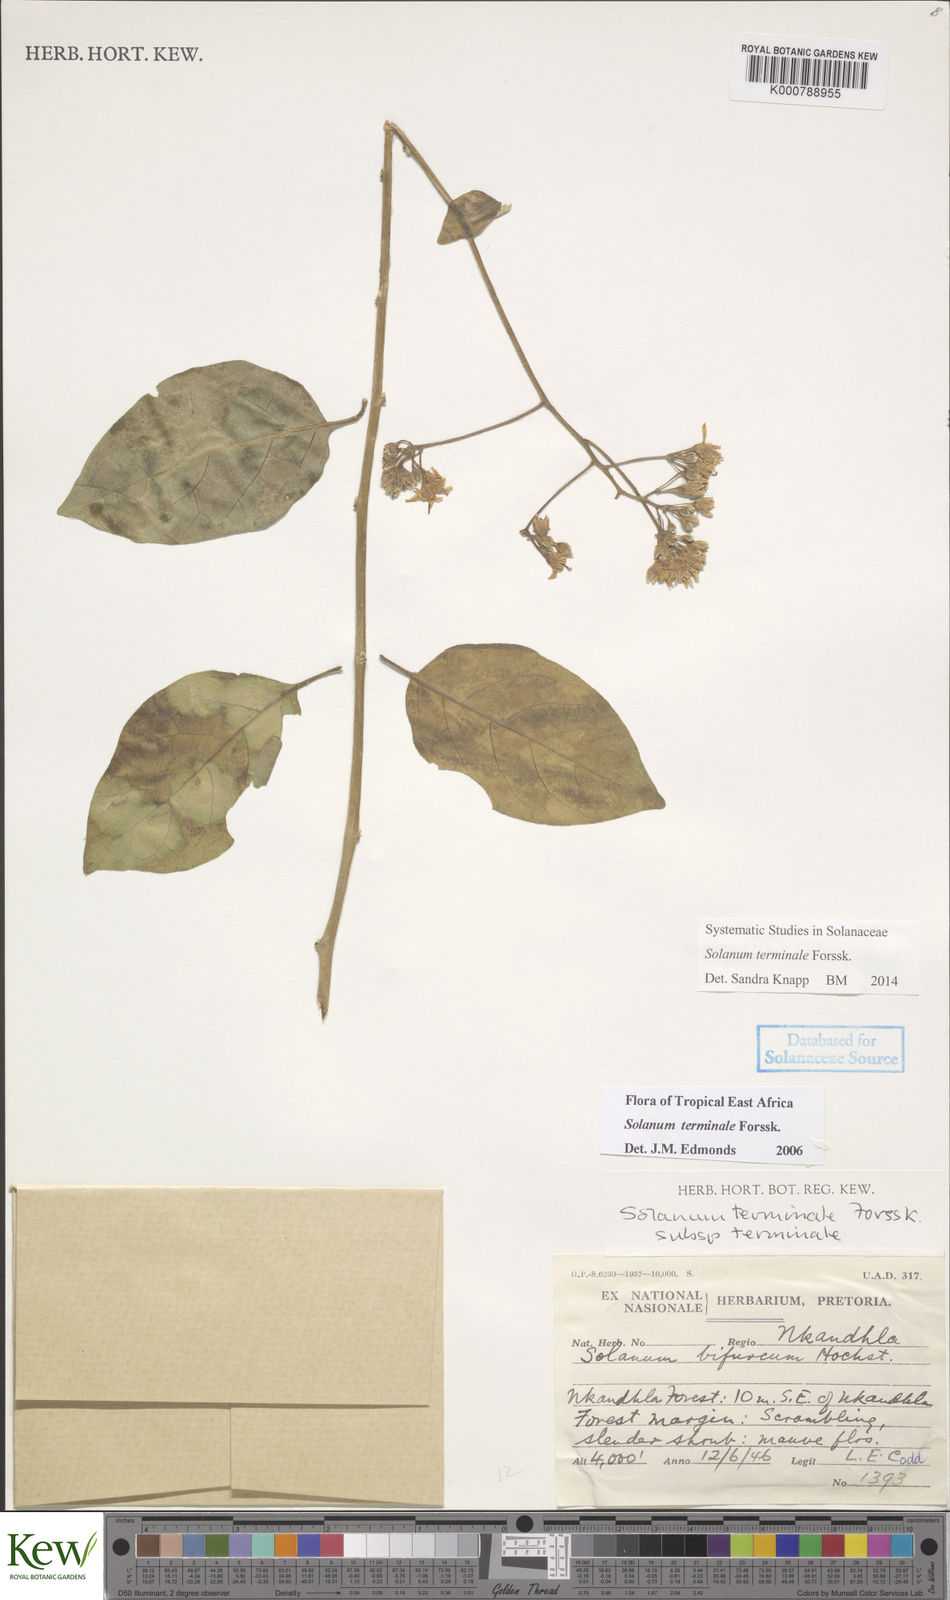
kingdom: Plantae
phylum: Tracheophyta
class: Magnoliopsida
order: Solanales
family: Solanaceae
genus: Solanum
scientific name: Solanum terminale
